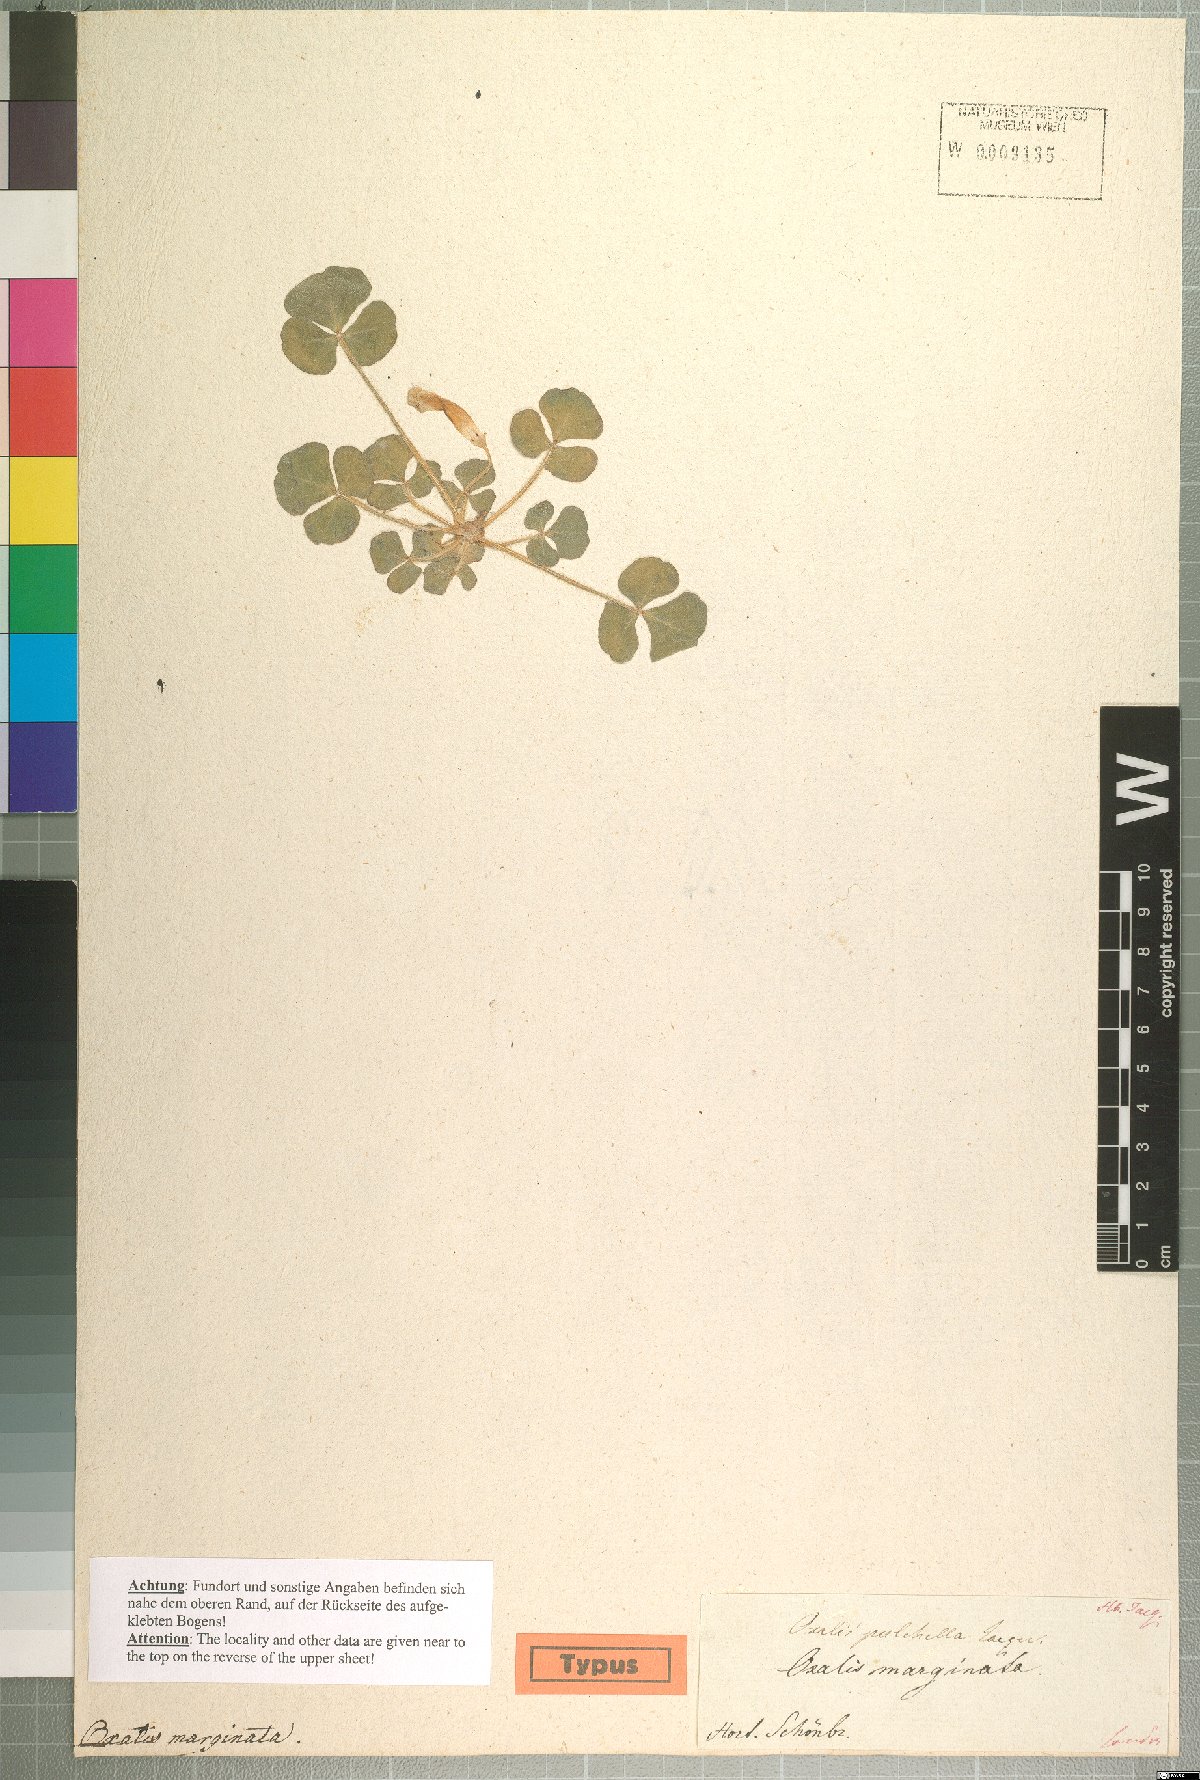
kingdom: Plantae
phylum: Tracheophyta
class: Magnoliopsida
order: Oxalidales
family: Oxalidaceae
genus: Oxalis
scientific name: Oxalis pulchella
